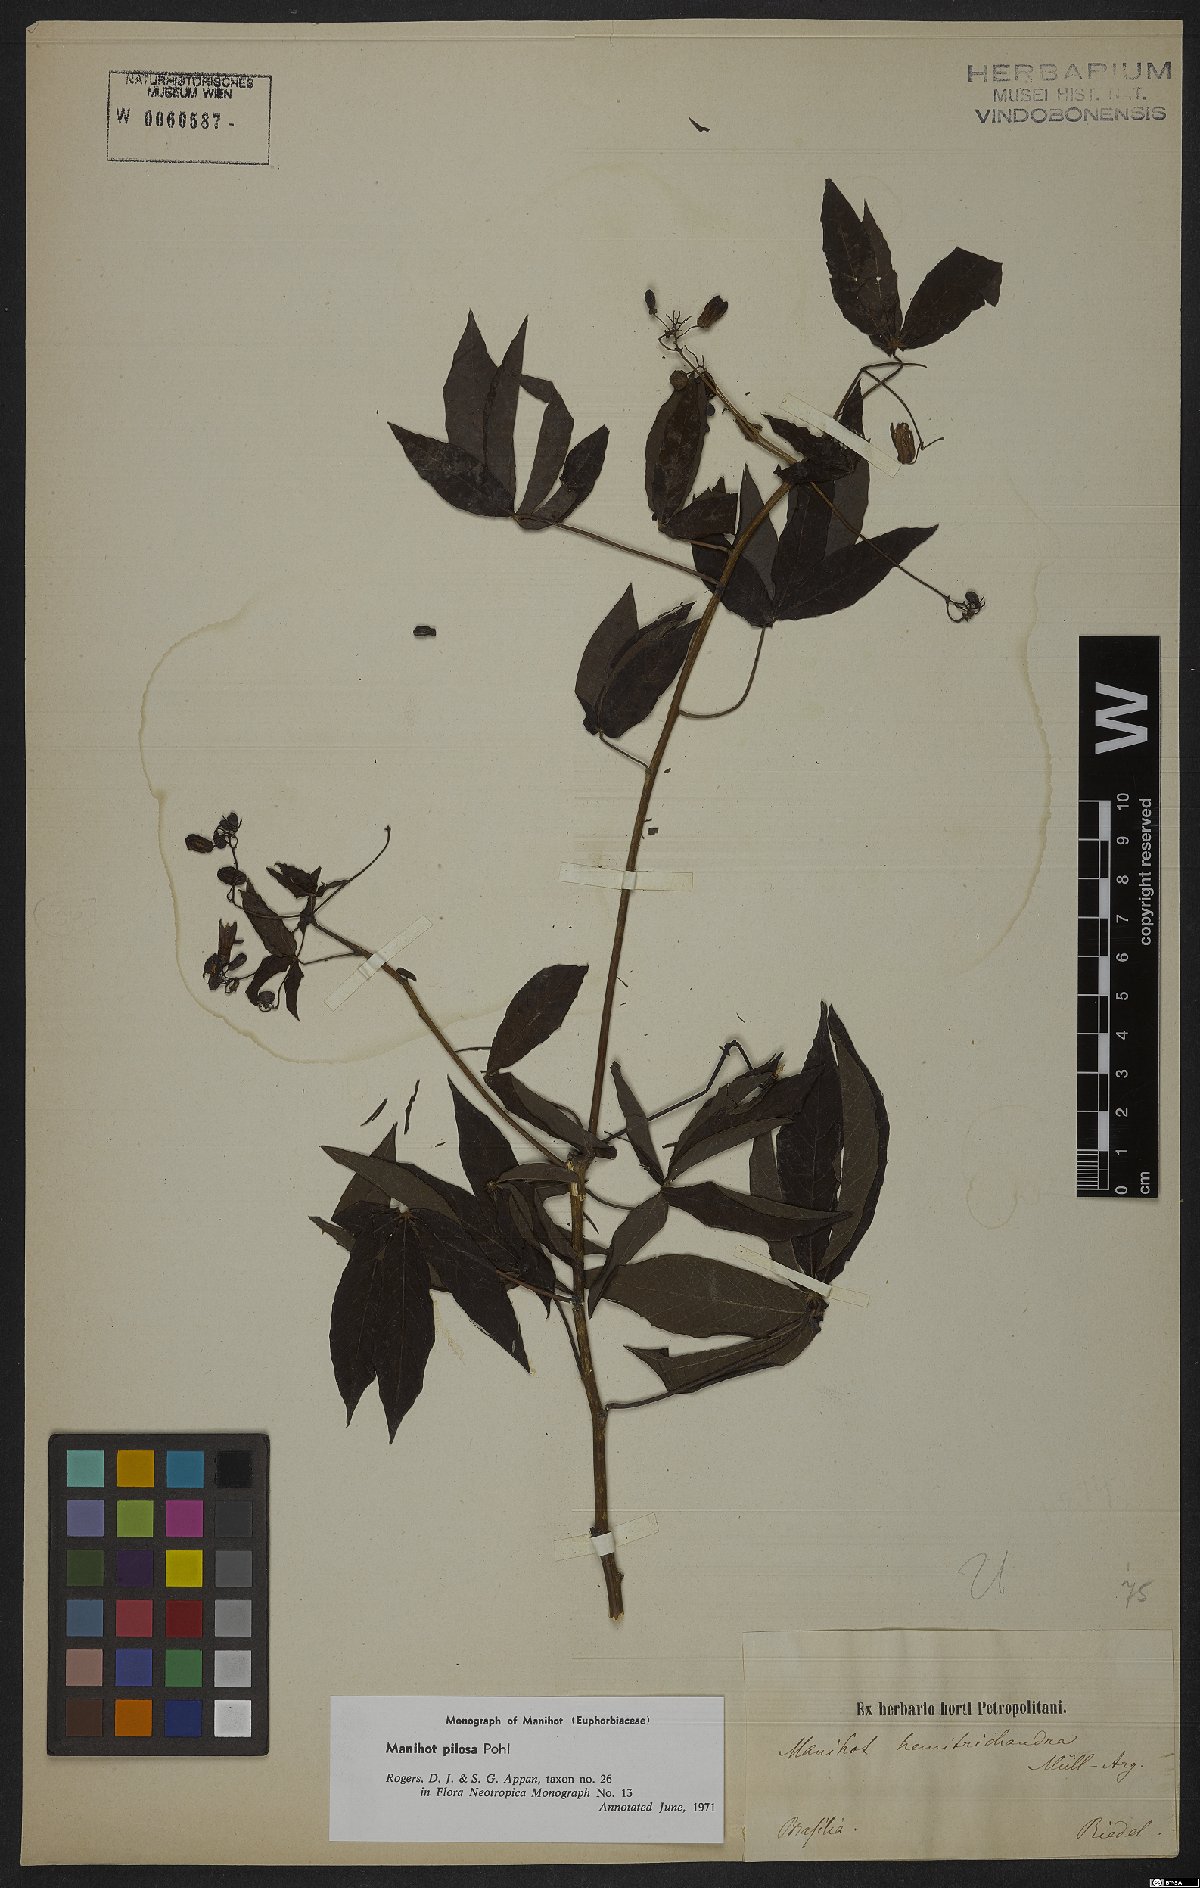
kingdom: Plantae
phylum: Tracheophyta
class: Magnoliopsida
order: Malpighiales
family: Euphorbiaceae
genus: Manihot
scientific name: Manihot pilosa
